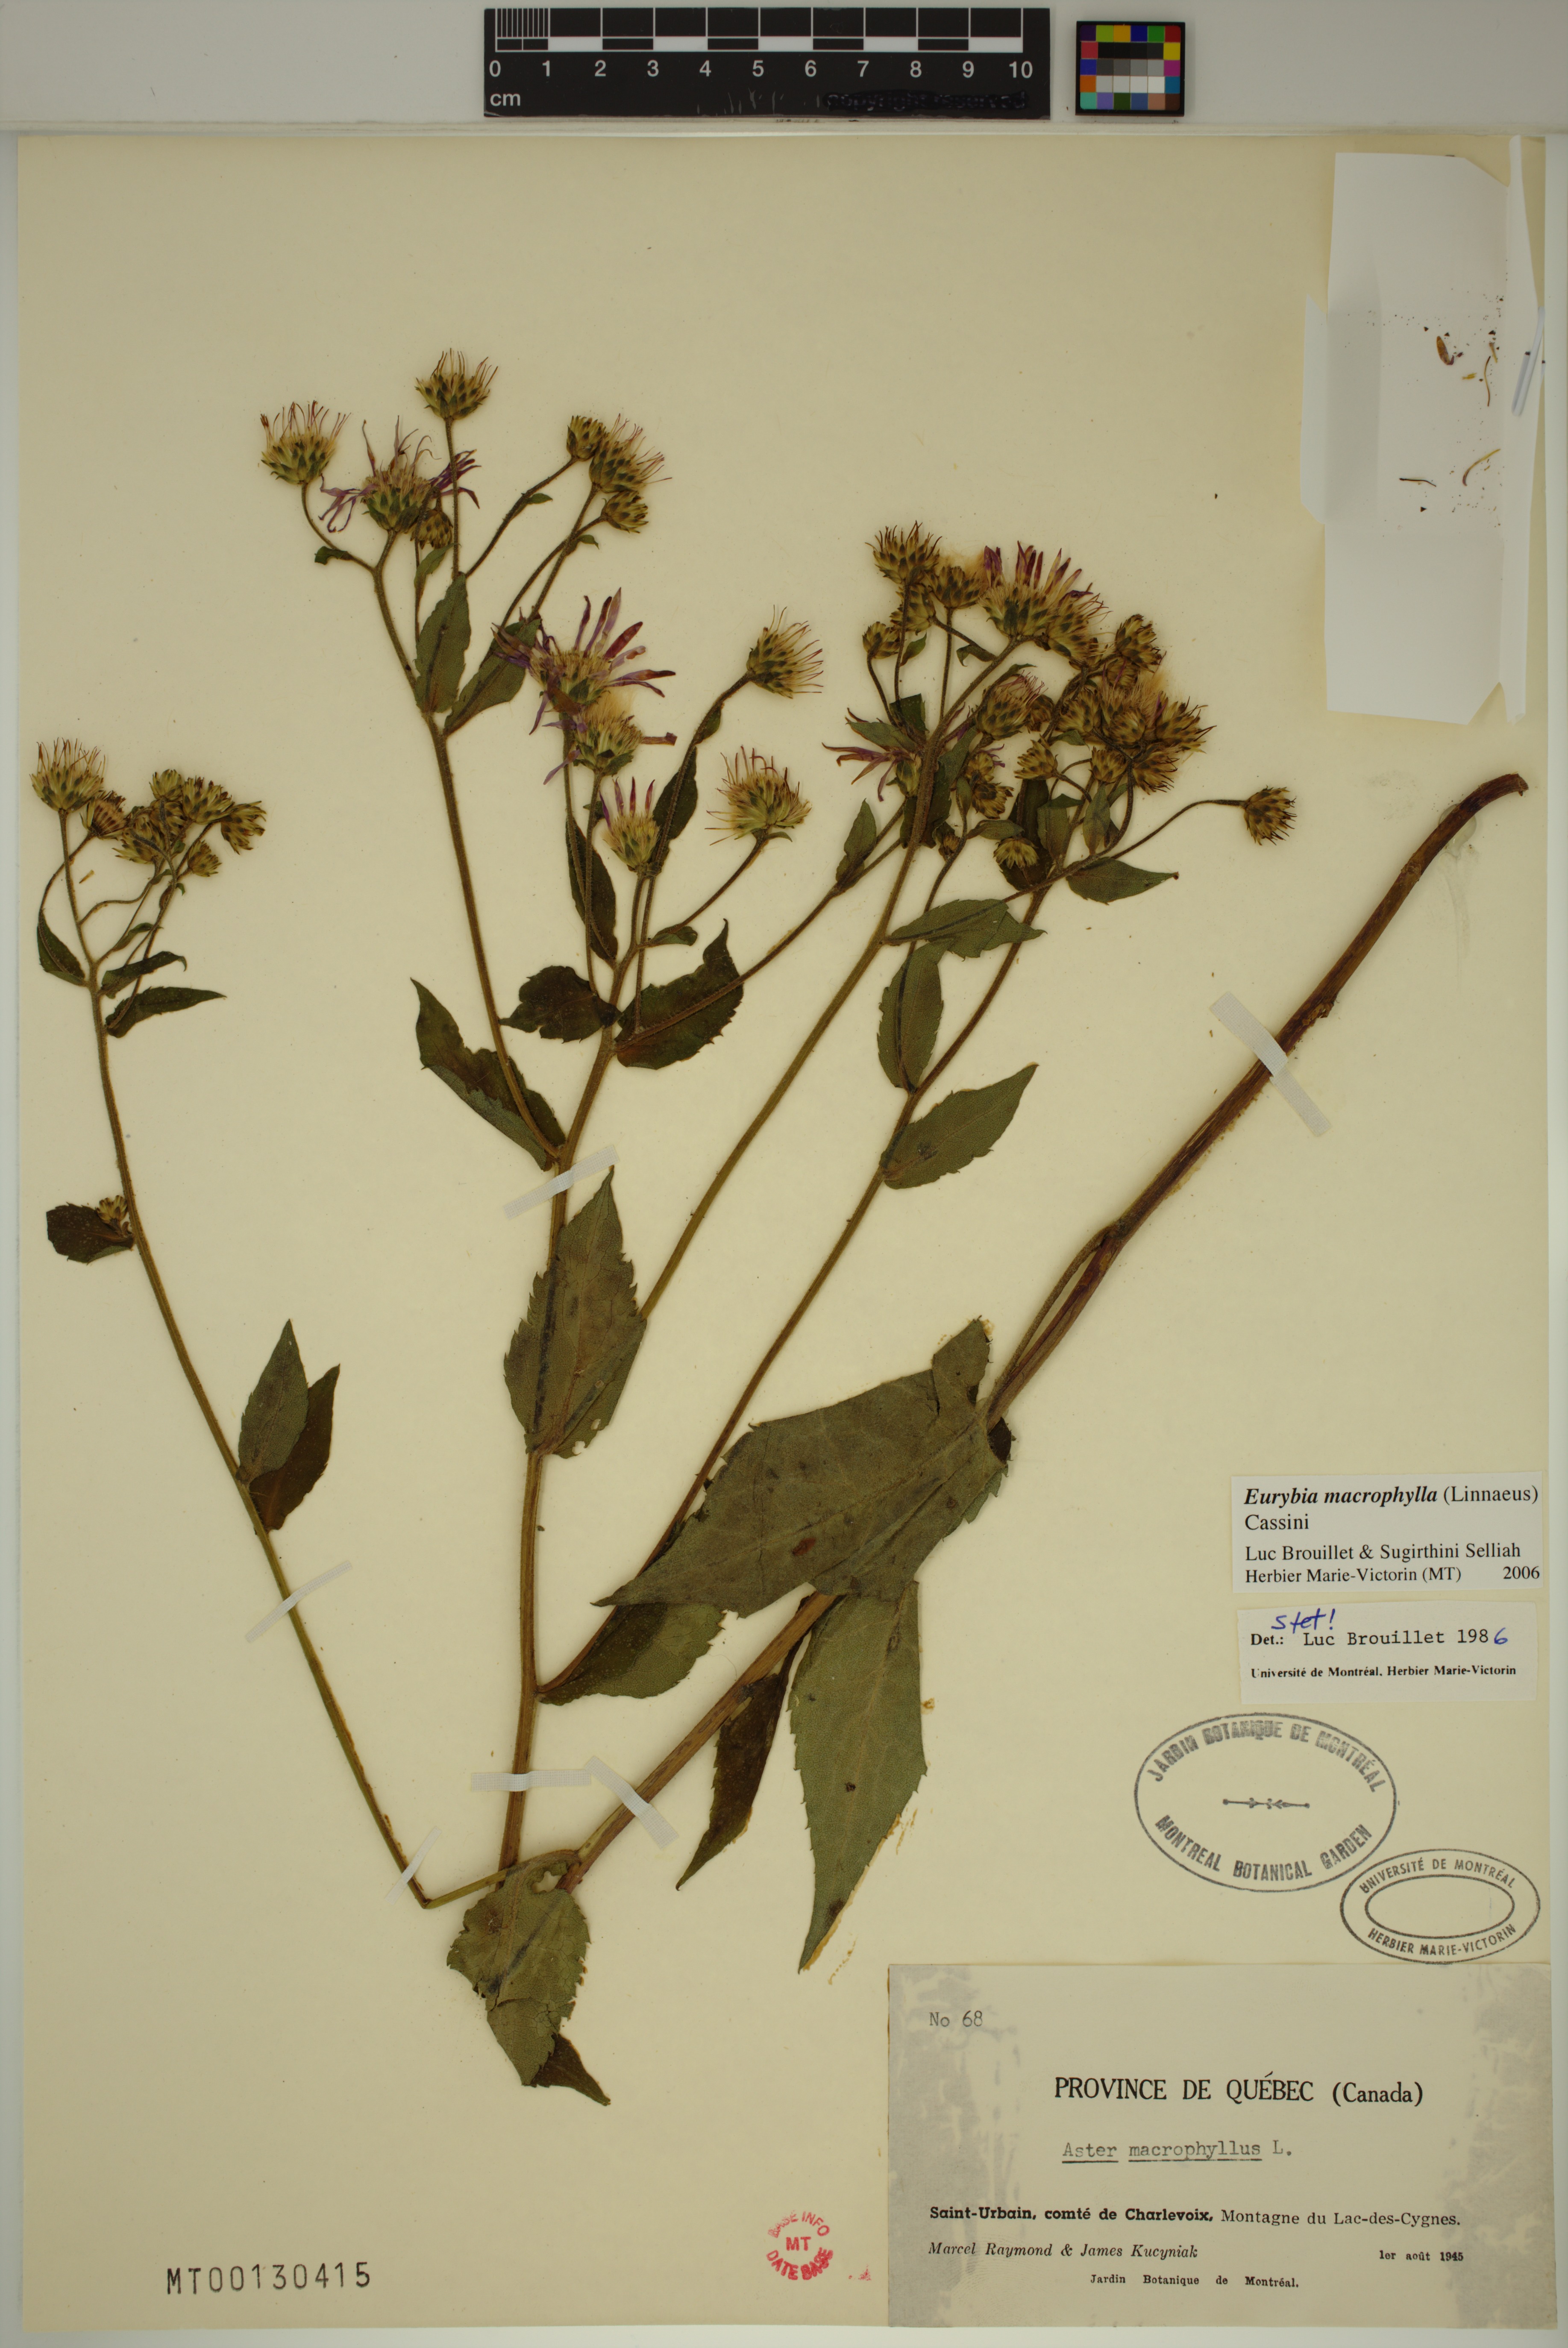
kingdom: Plantae
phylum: Tracheophyta
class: Magnoliopsida
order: Asterales
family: Asteraceae
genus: Eurybia
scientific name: Eurybia macrophylla
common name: Big-leaved aster
